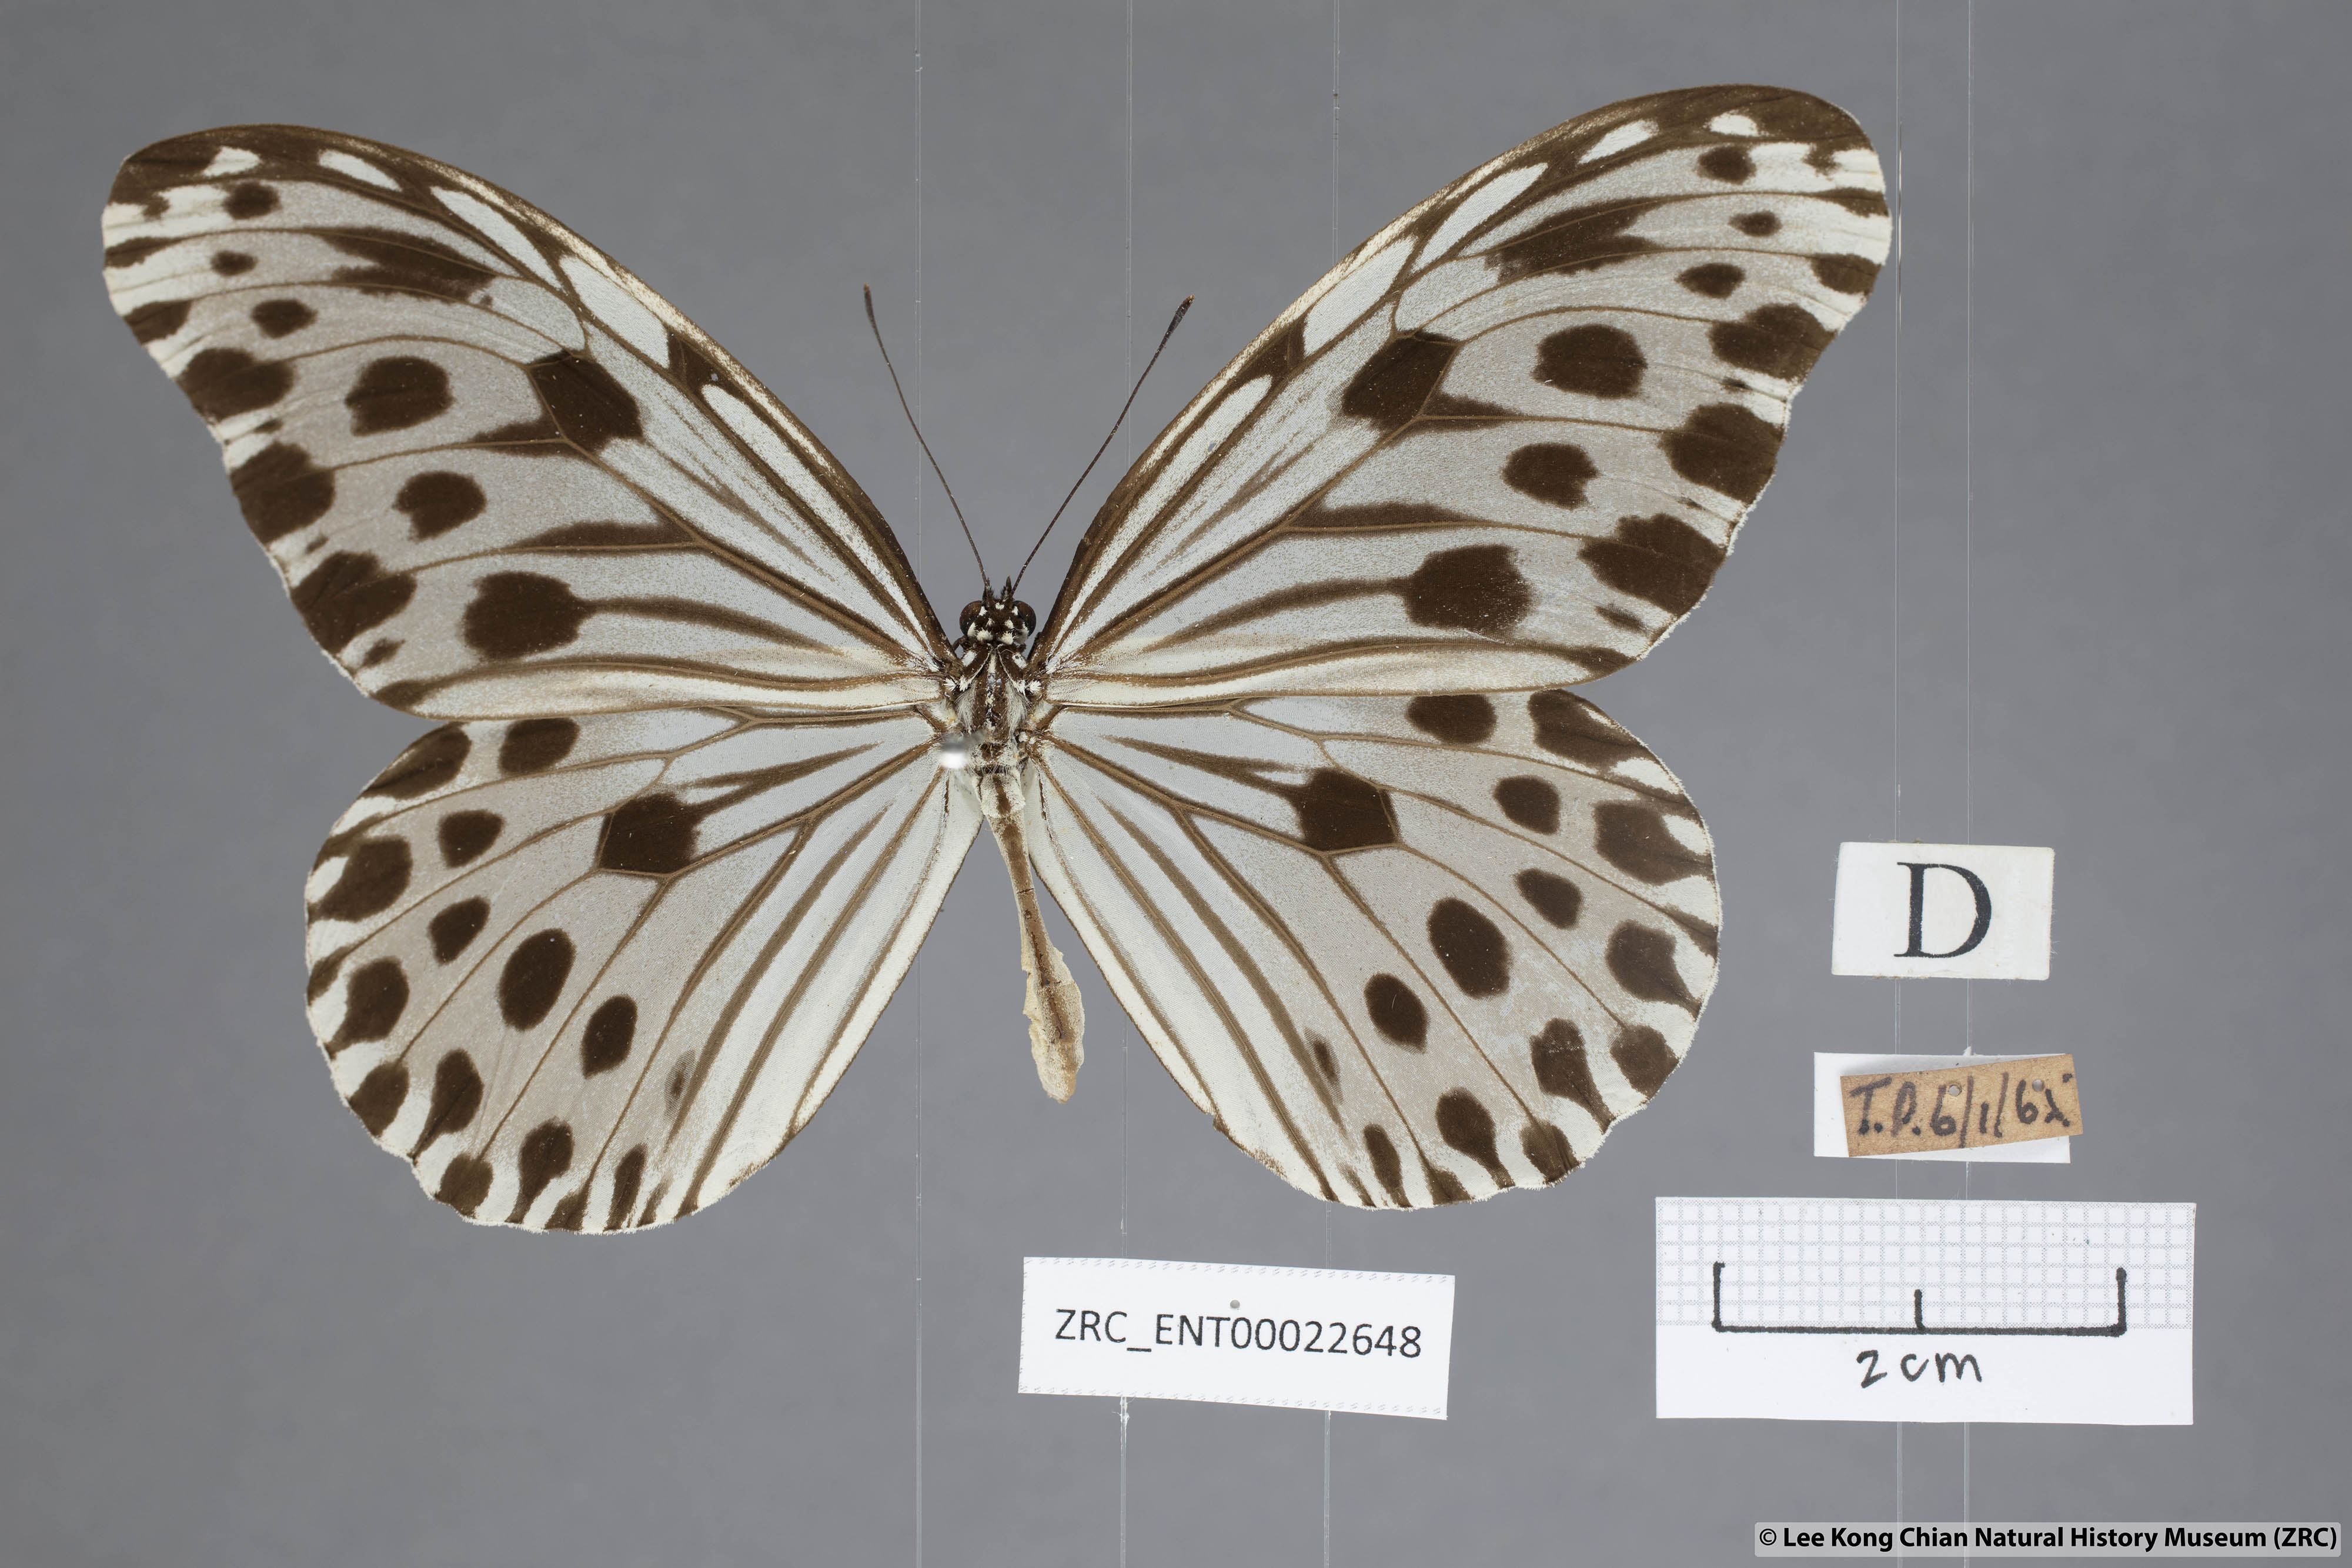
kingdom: Animalia
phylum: Arthropoda
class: Insecta
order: Lepidoptera
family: Nymphalidae
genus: Ideopsis
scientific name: Ideopsis gaura
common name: Smaller wood nymph
